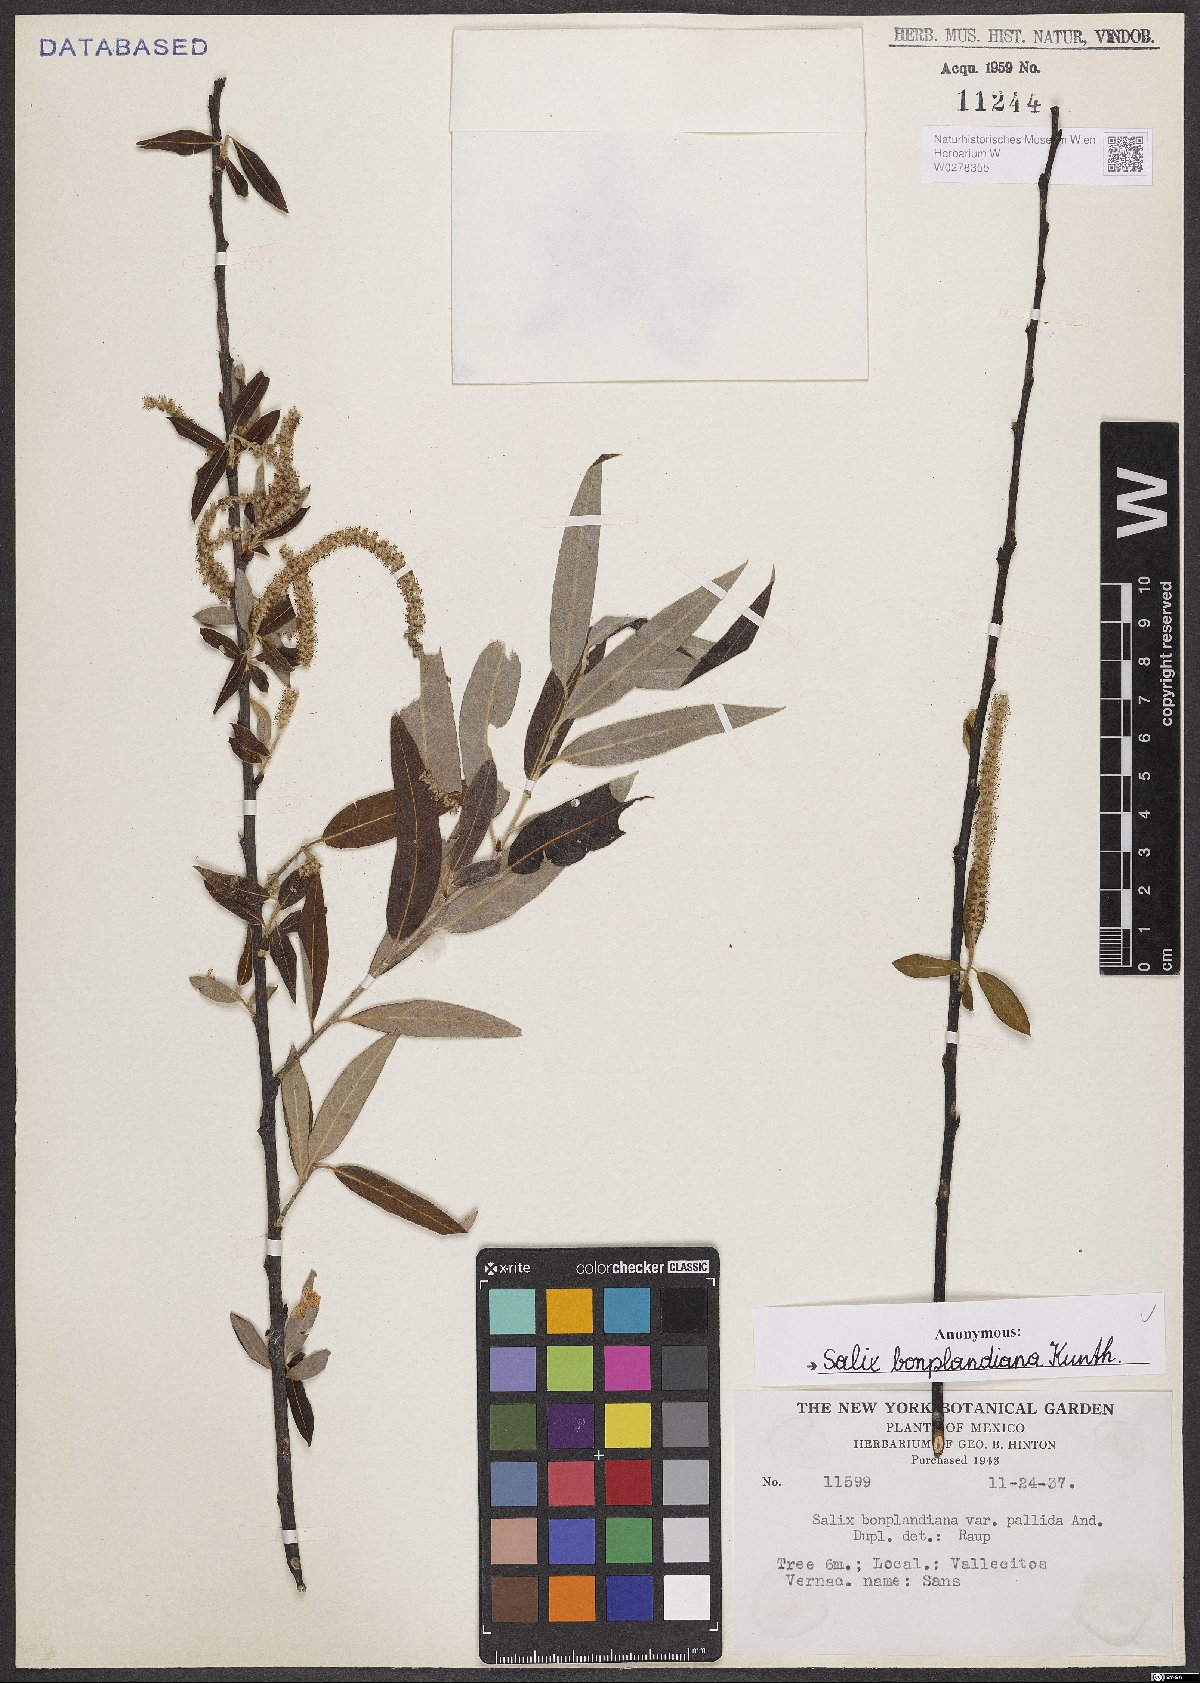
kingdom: Plantae
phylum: Tracheophyta
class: Magnoliopsida
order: Malpighiales
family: Salicaceae
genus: Salix
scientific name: Salix bonplandiana
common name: Bonpland’s willow
